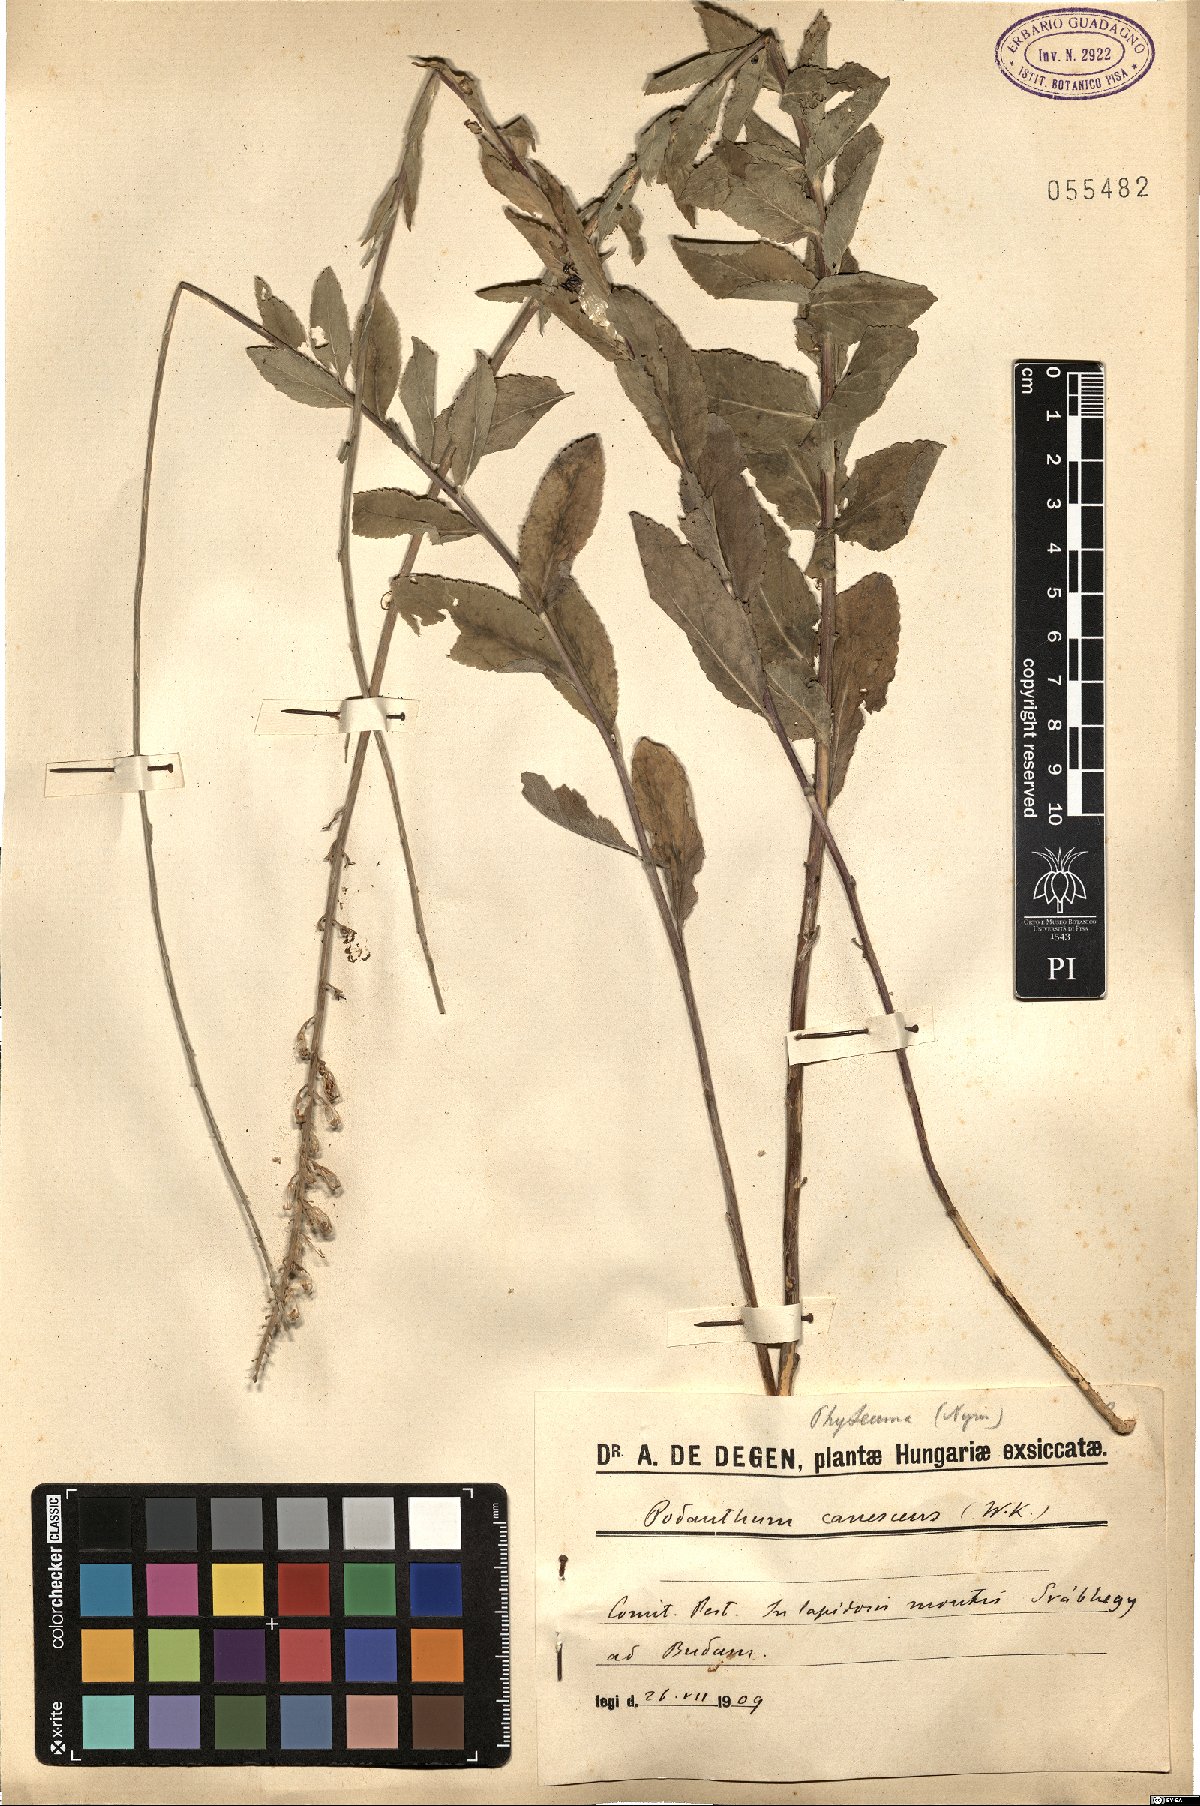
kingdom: Plantae
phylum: Tracheophyta
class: Magnoliopsida
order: Asterales
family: Campanulaceae
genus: Asyneuma
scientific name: Asyneuma canescens
